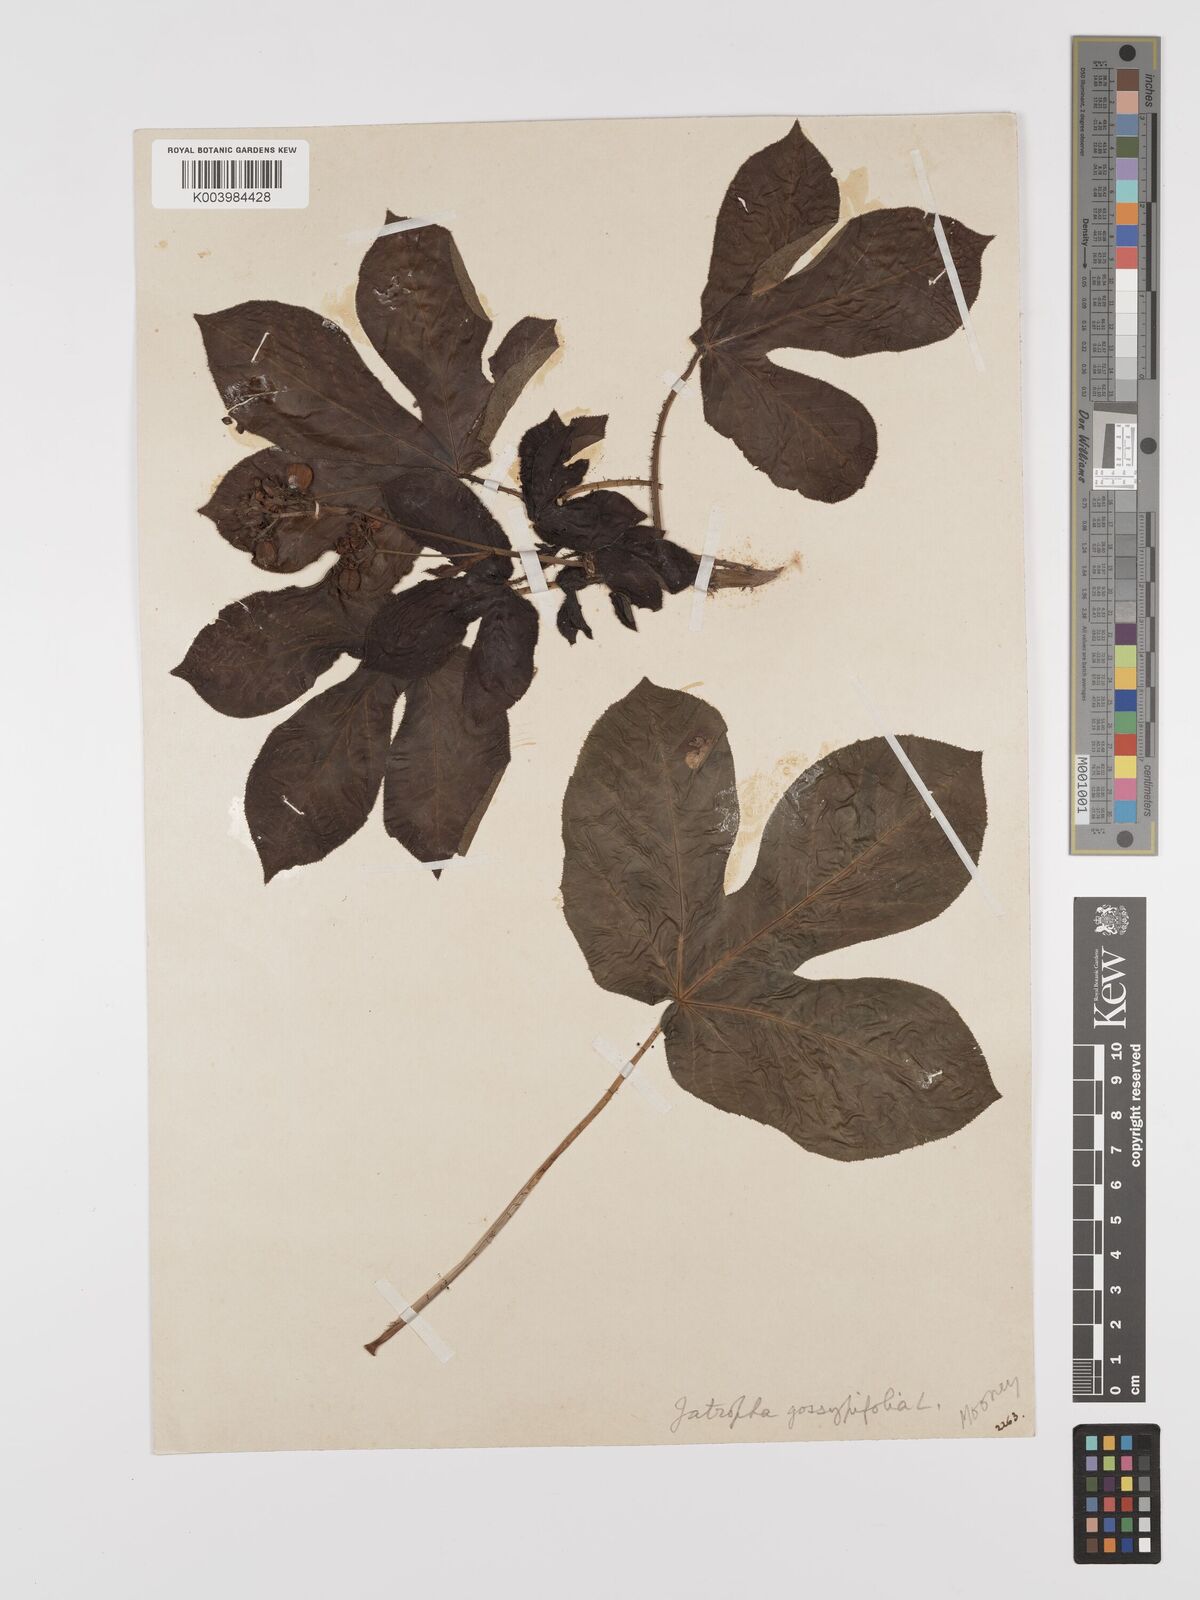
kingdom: Plantae
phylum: Tracheophyta
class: Magnoliopsida
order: Malpighiales
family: Euphorbiaceae
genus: Jatropha
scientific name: Jatropha gossypiifolia
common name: Bellyache bush
